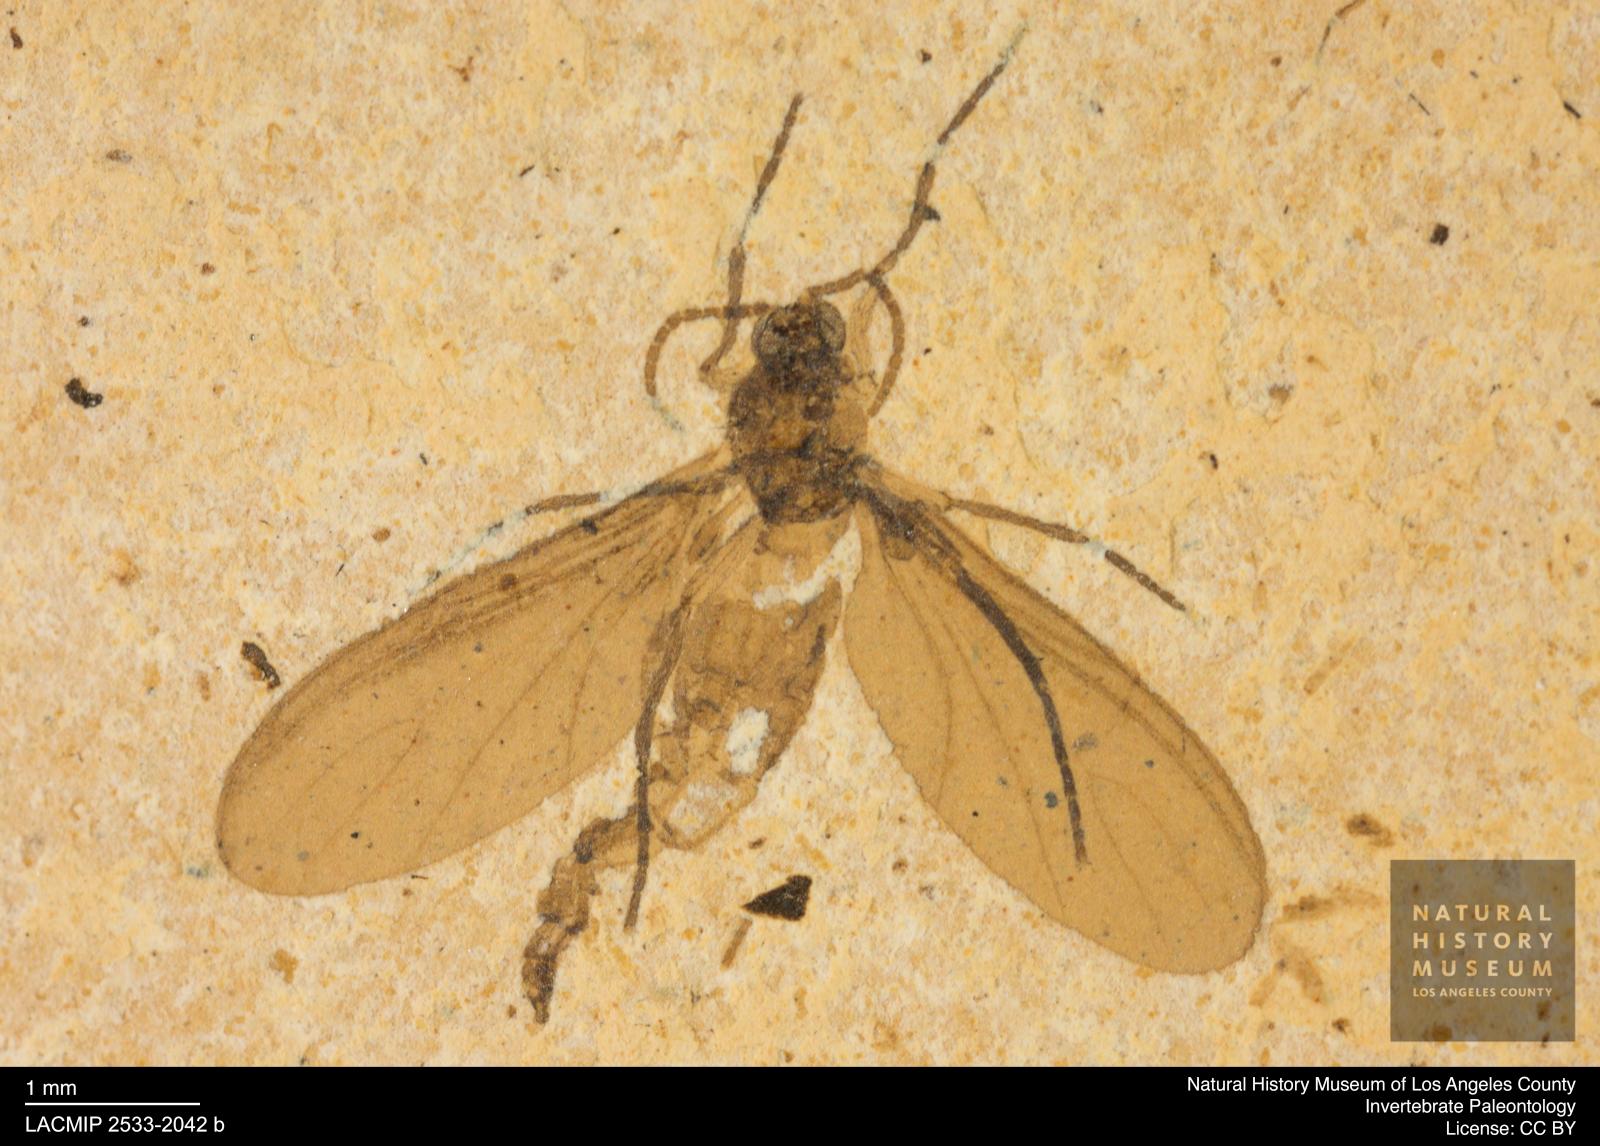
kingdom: Animalia
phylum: Arthropoda
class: Insecta
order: Diptera
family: Sciaridae
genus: Sciara
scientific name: Sciara heydeni
